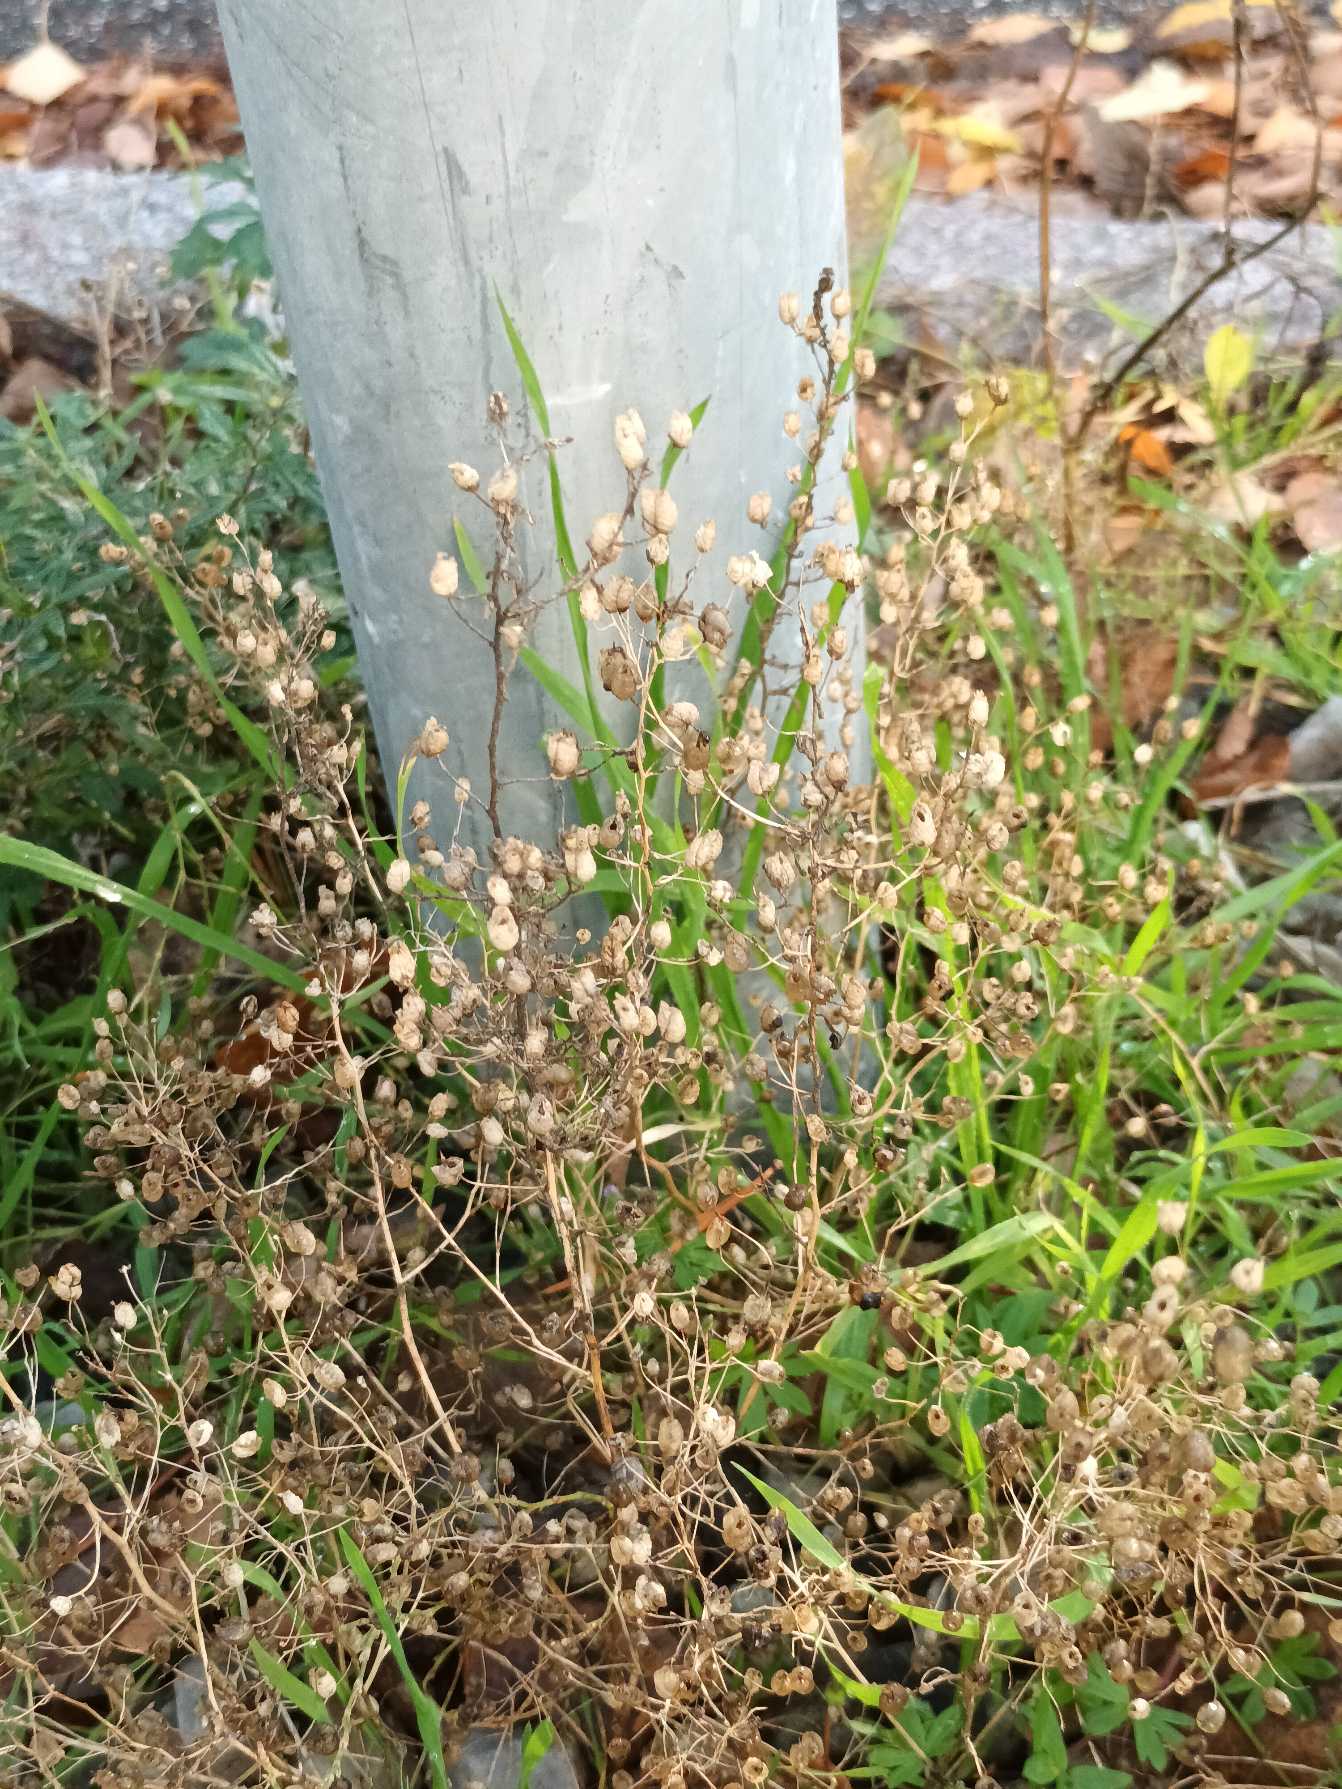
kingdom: Plantae
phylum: Tracheophyta
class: Magnoliopsida
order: Lamiales
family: Plantaginaceae
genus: Chaenorhinum
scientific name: Chaenorhinum minus
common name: Liden torskemund
